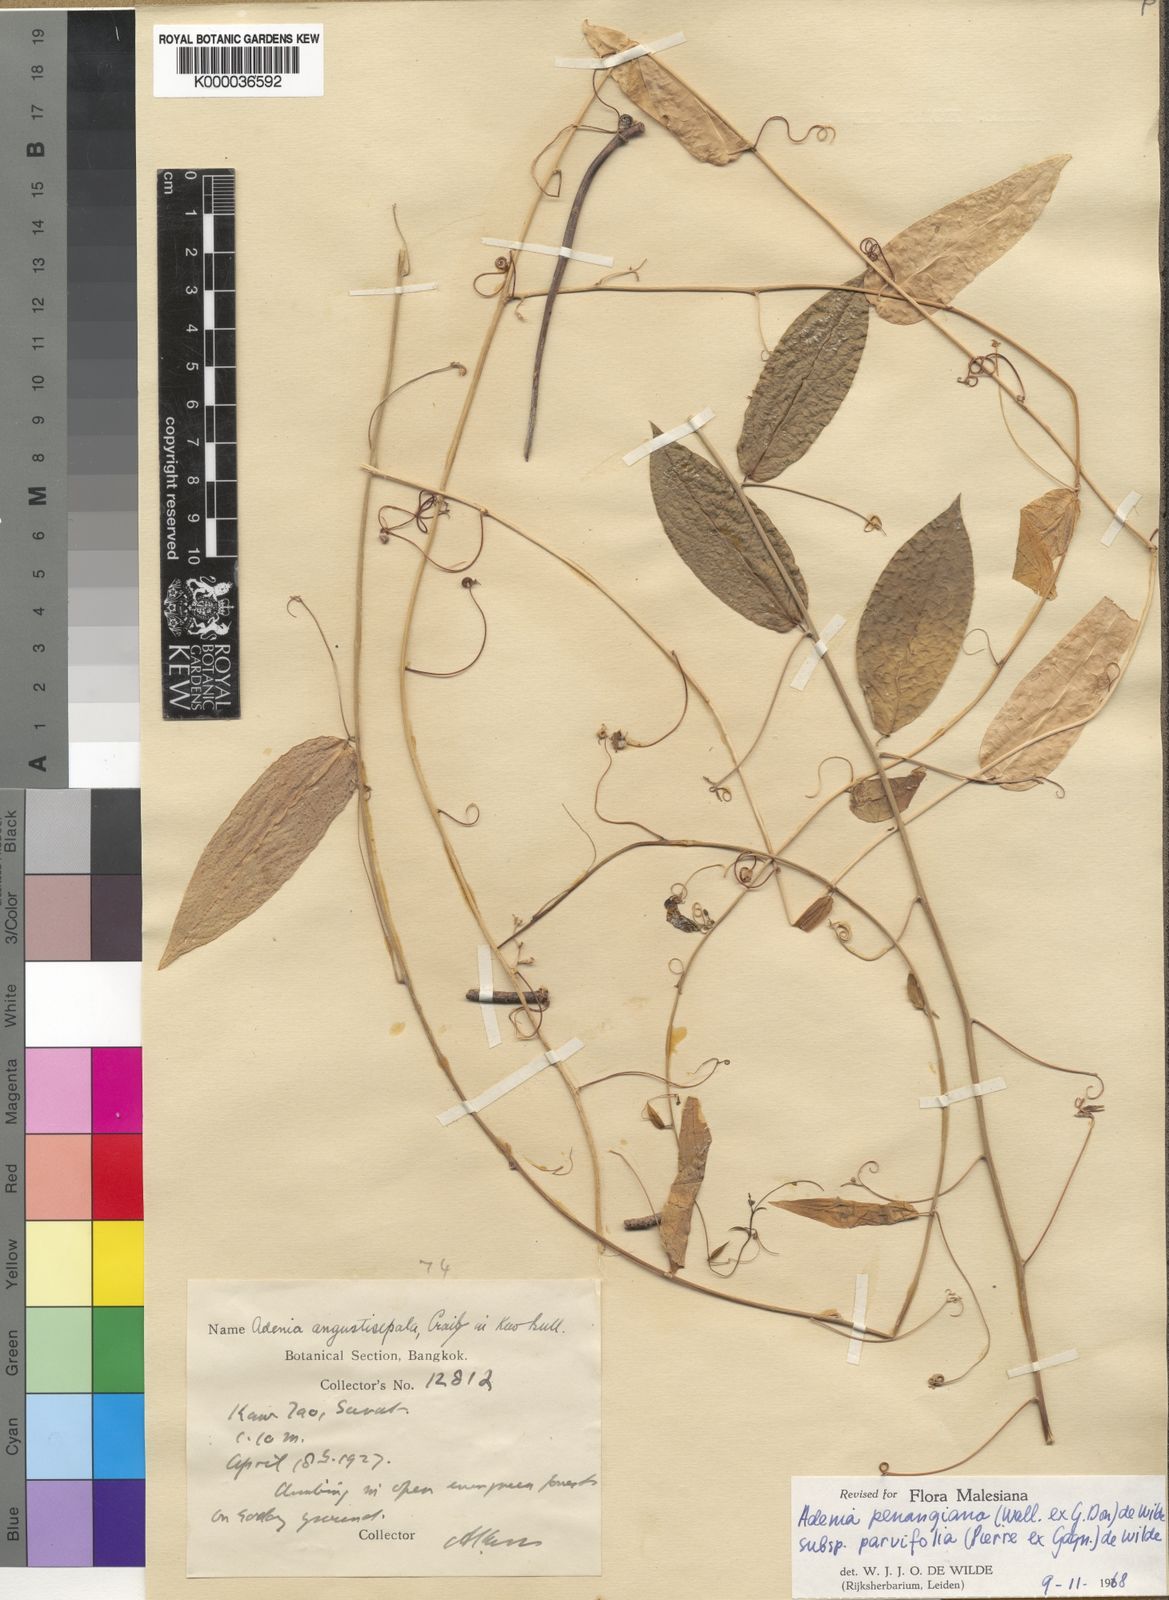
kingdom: Plantae
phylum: Tracheophyta
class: Magnoliopsida
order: Malpighiales
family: Passifloraceae
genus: Adenia
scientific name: Adenia penangiana
